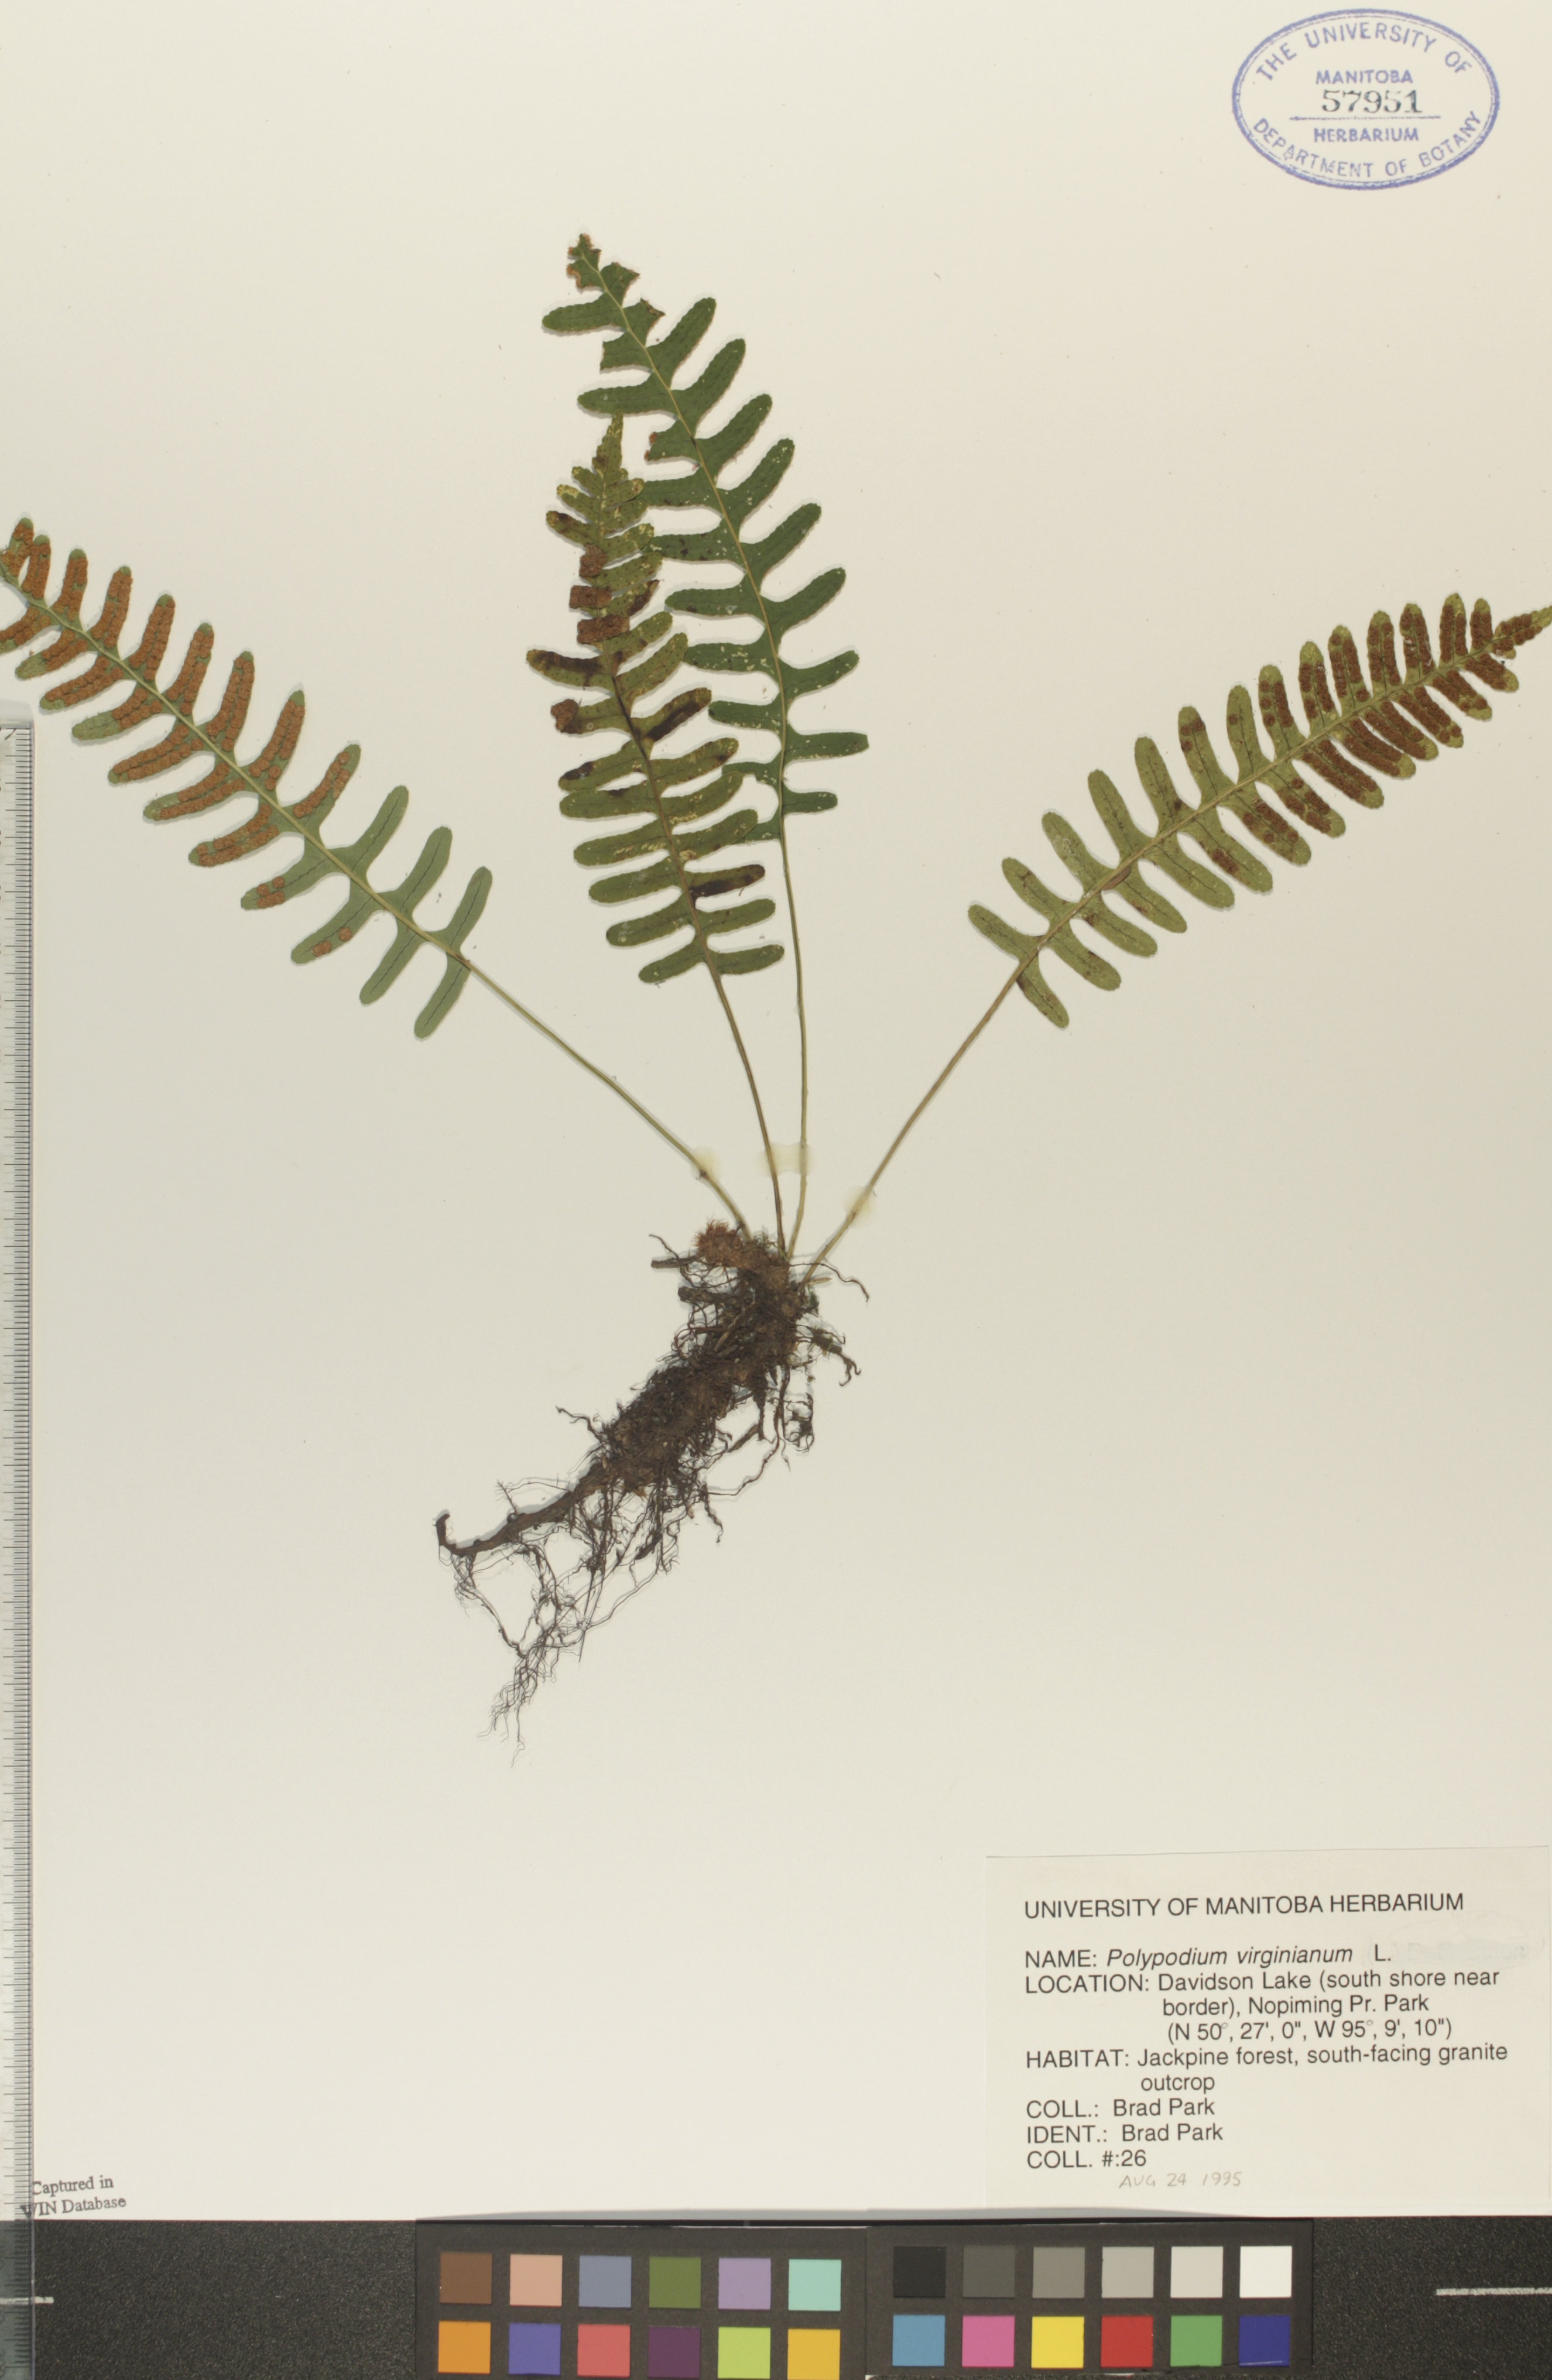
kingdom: Plantae
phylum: Tracheophyta
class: Polypodiopsida
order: Polypodiales
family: Polypodiaceae
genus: Polypodium
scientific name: Polypodium virginianum
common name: American wall fern
